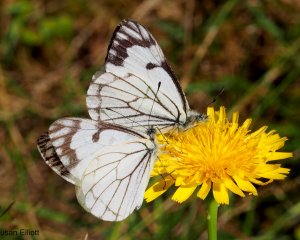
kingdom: Animalia
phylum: Arthropoda
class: Insecta
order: Lepidoptera
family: Pieridae
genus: Neophasia
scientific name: Neophasia menapia
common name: Pine White
